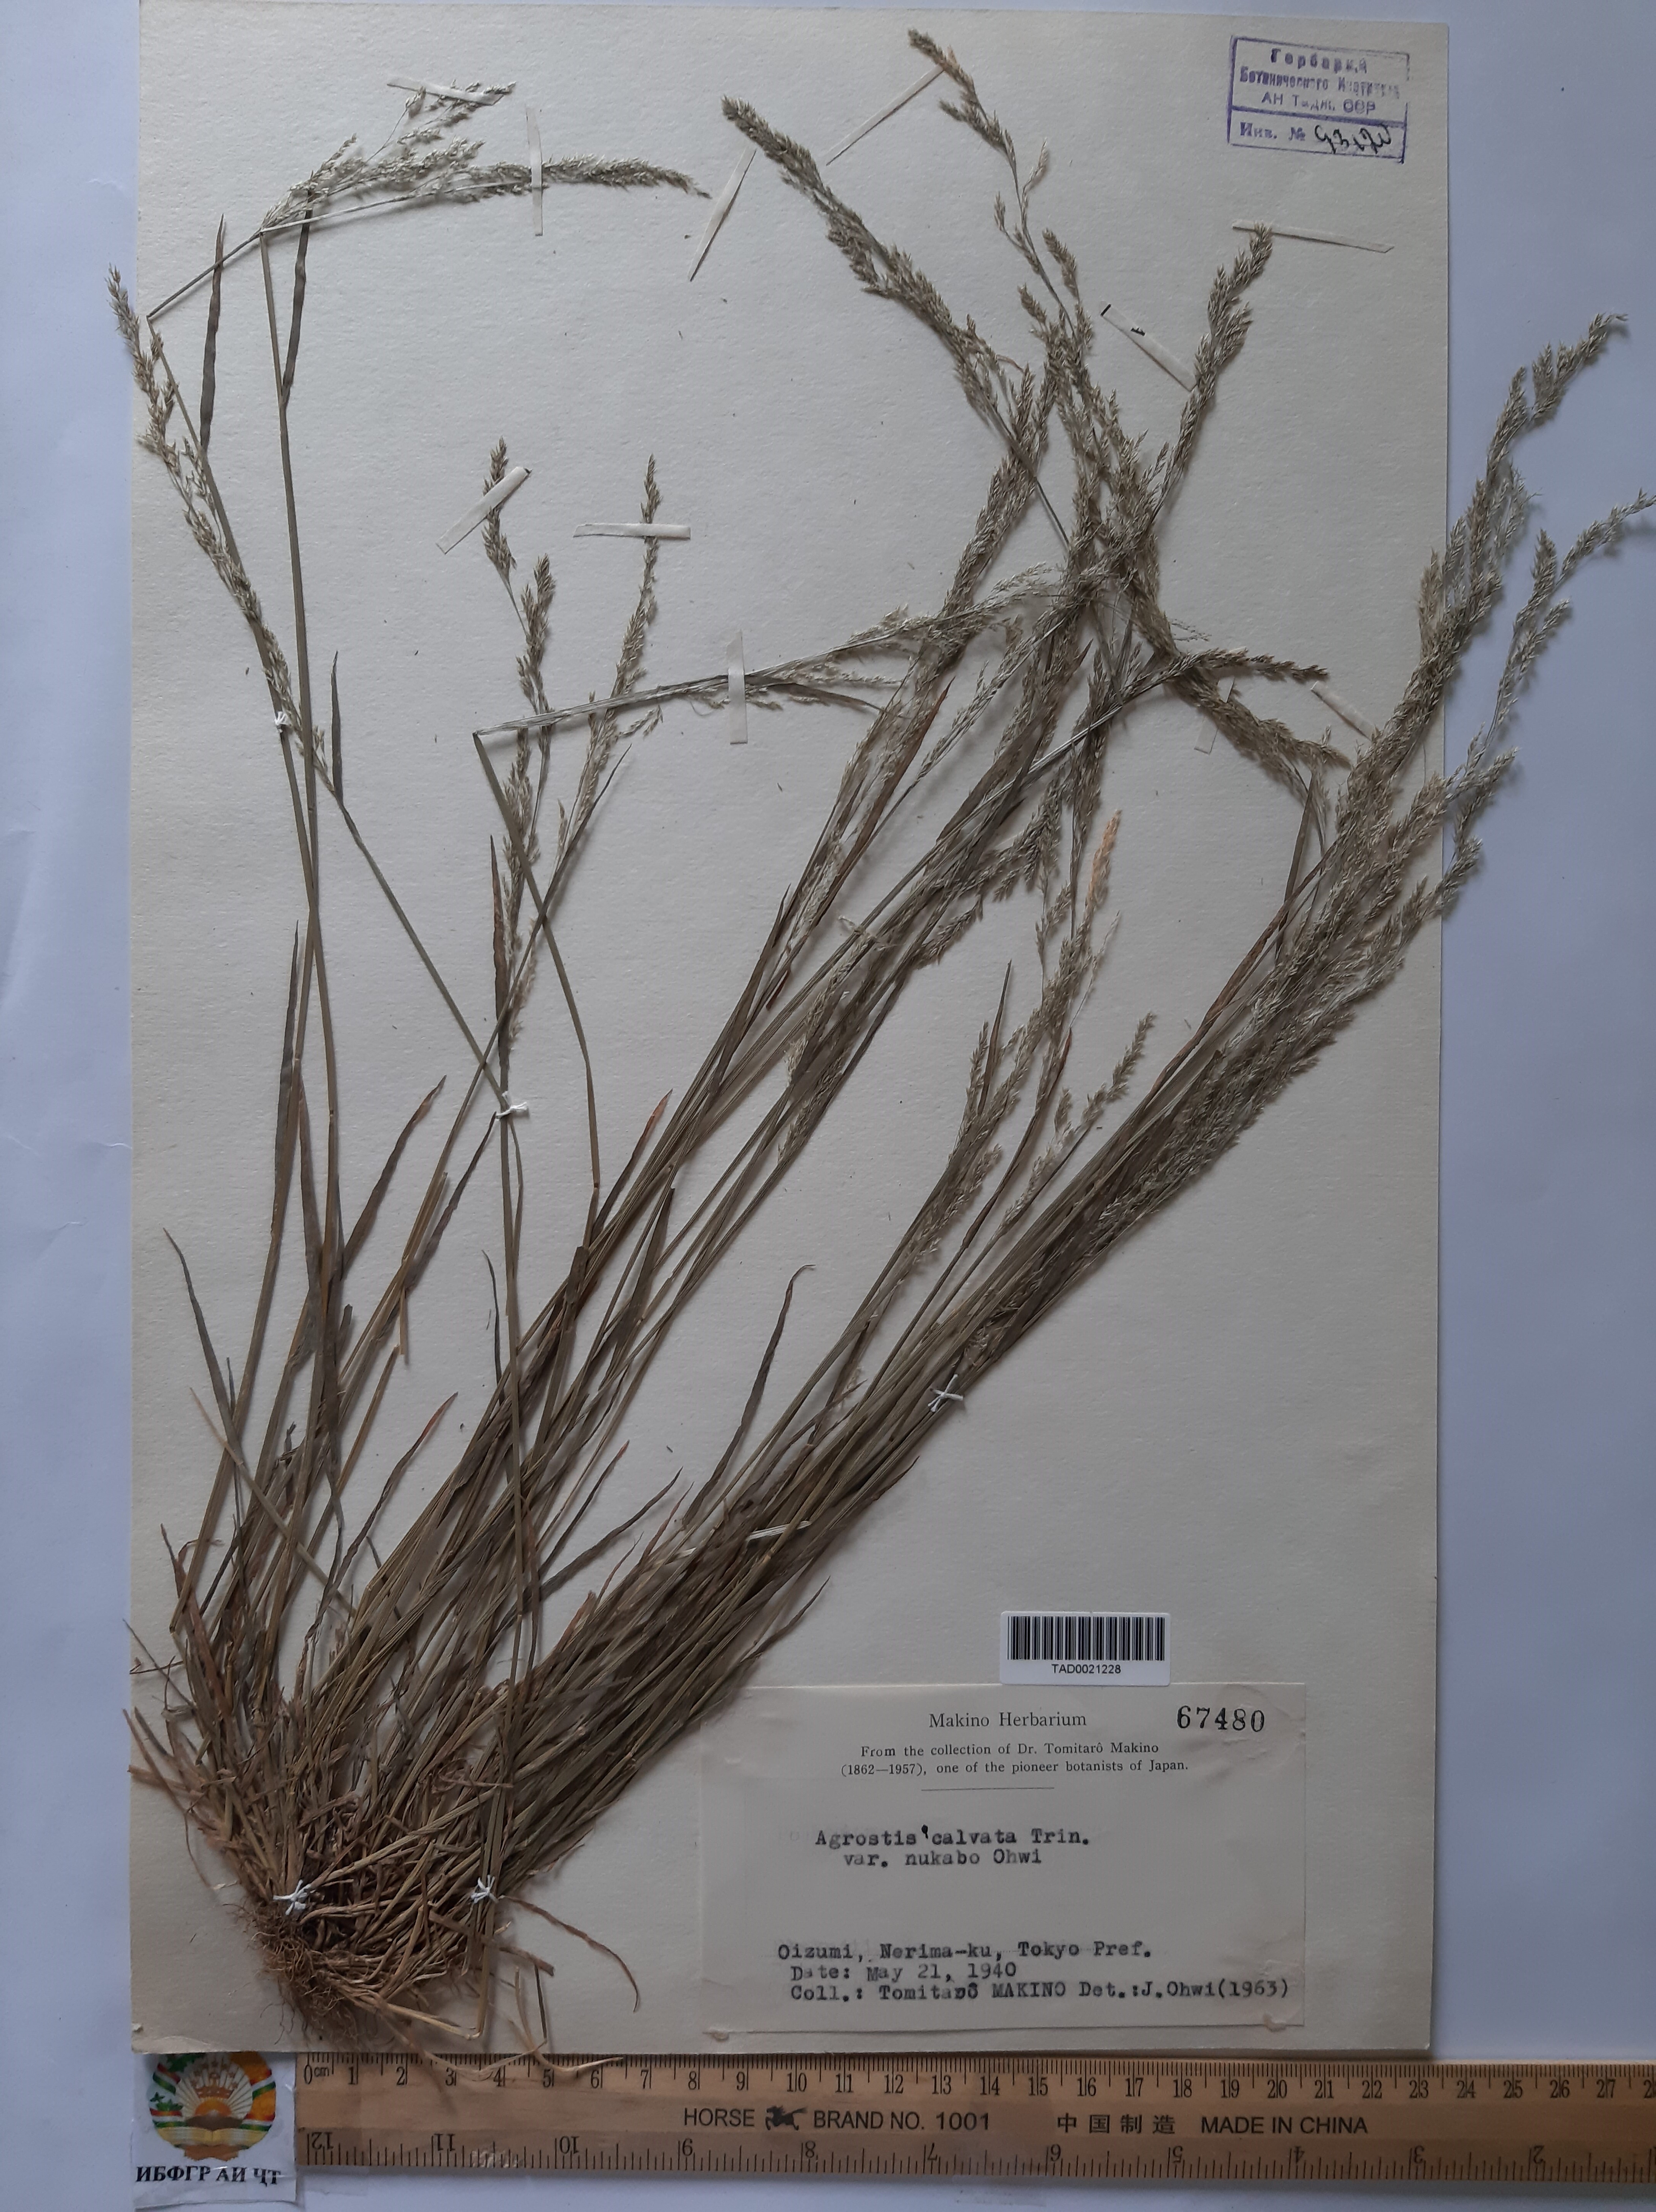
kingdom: Plantae
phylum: Tracheophyta
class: Liliopsida
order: Poales
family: Poaceae
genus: Agrostis
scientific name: Agrostis clavata
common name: Clavate bent
